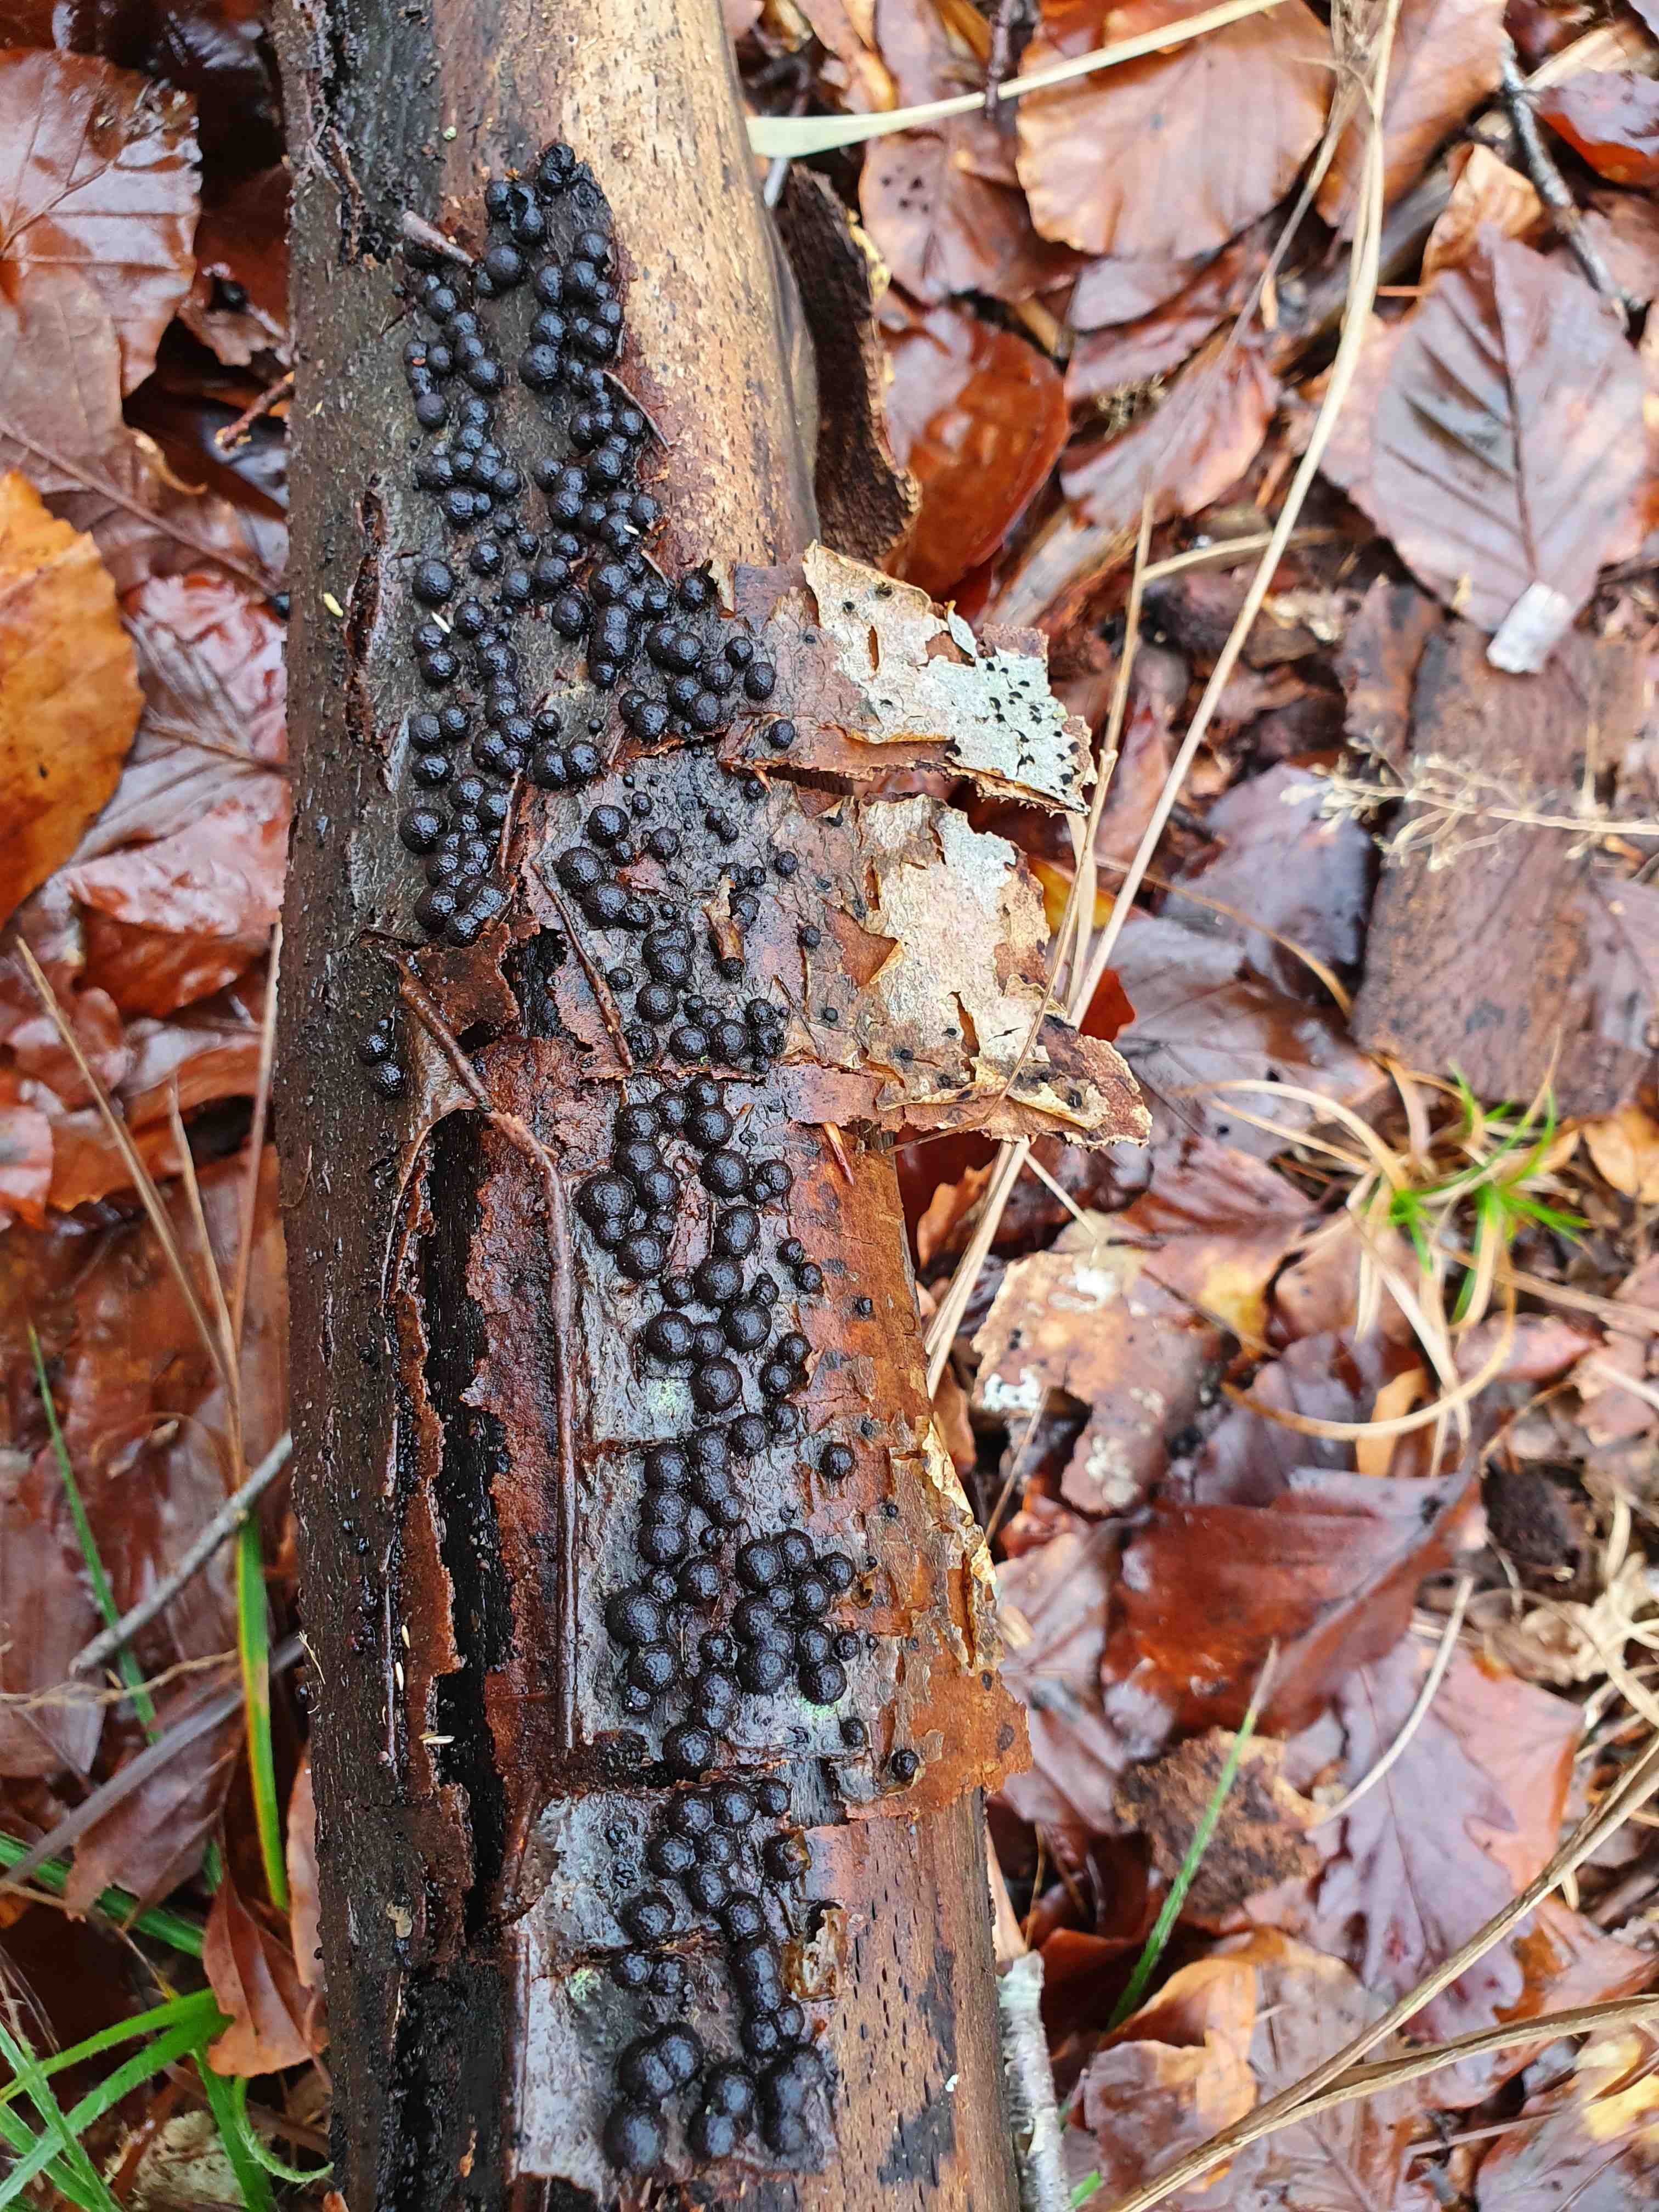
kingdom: Fungi
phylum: Ascomycota
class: Sordariomycetes
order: Xylariales
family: Hypoxylaceae
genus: Hypoxylon
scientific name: Hypoxylon fragiforme
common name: kuljordbær
